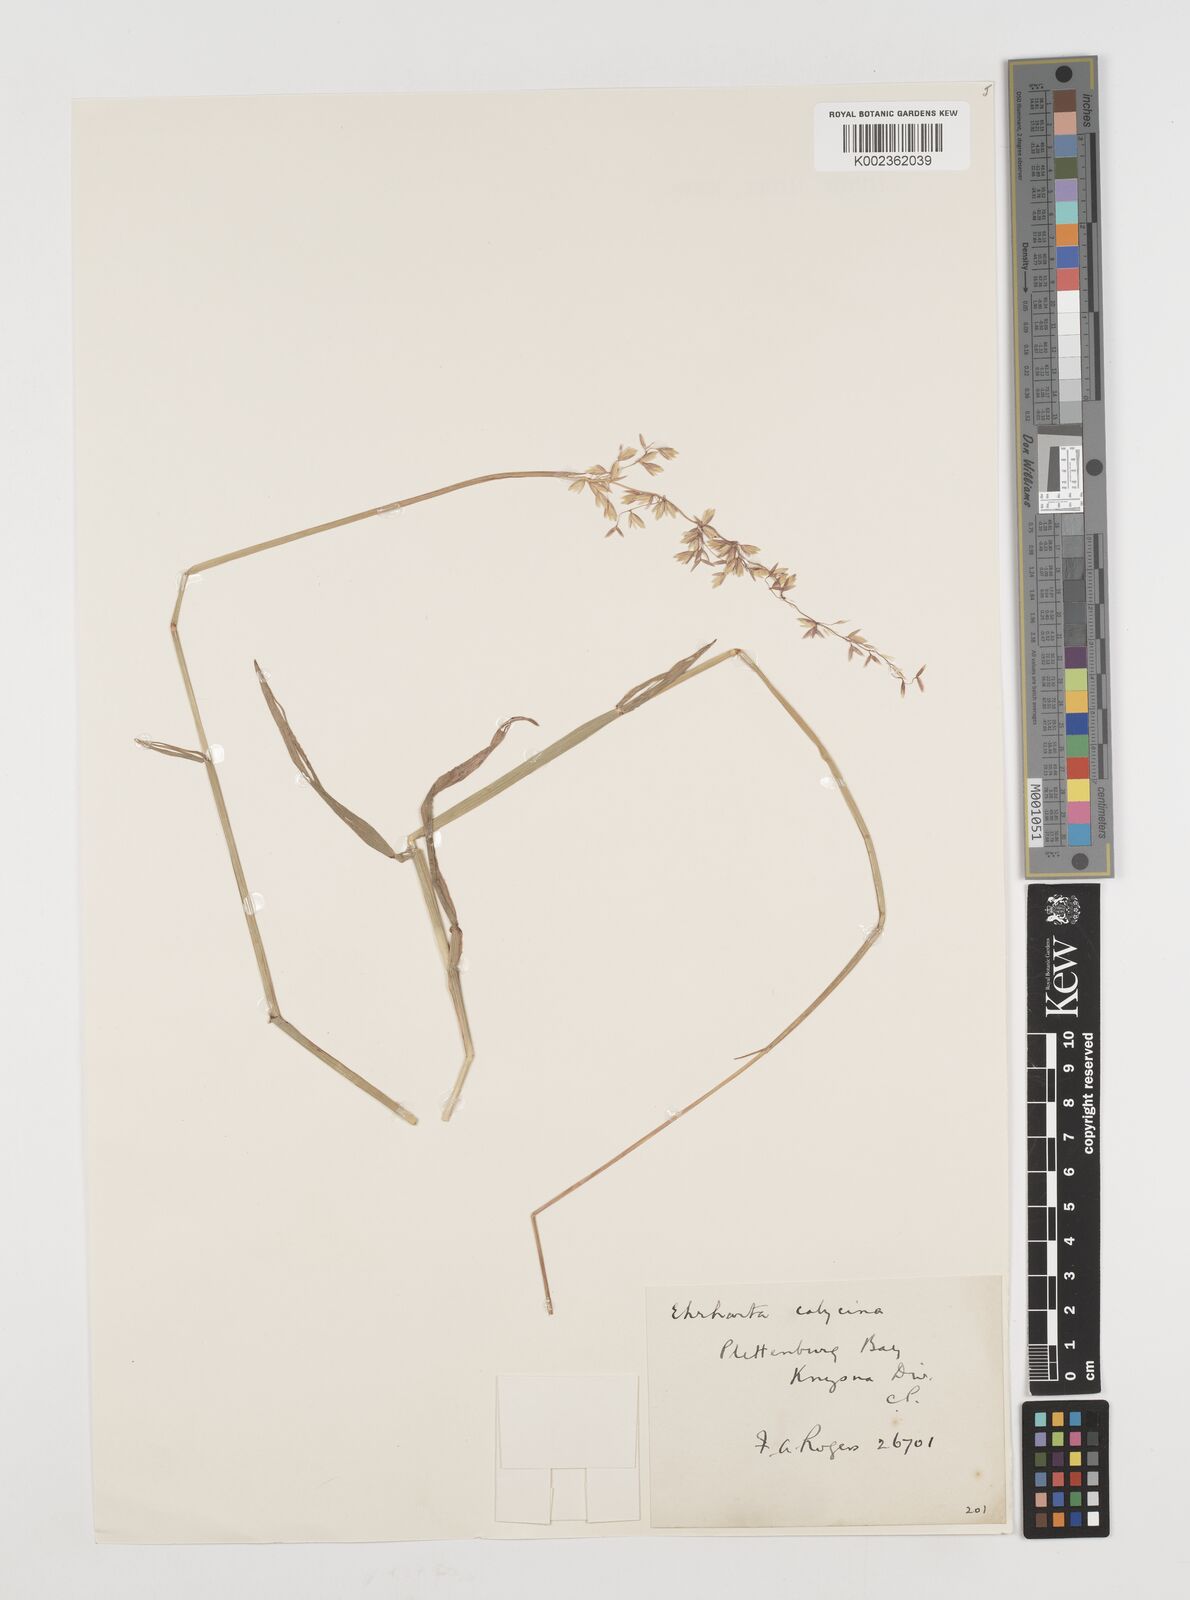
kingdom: Plantae
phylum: Tracheophyta
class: Liliopsida
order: Poales
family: Poaceae
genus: Ehrharta
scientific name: Ehrharta calycina
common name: Perennial veldtgrass
